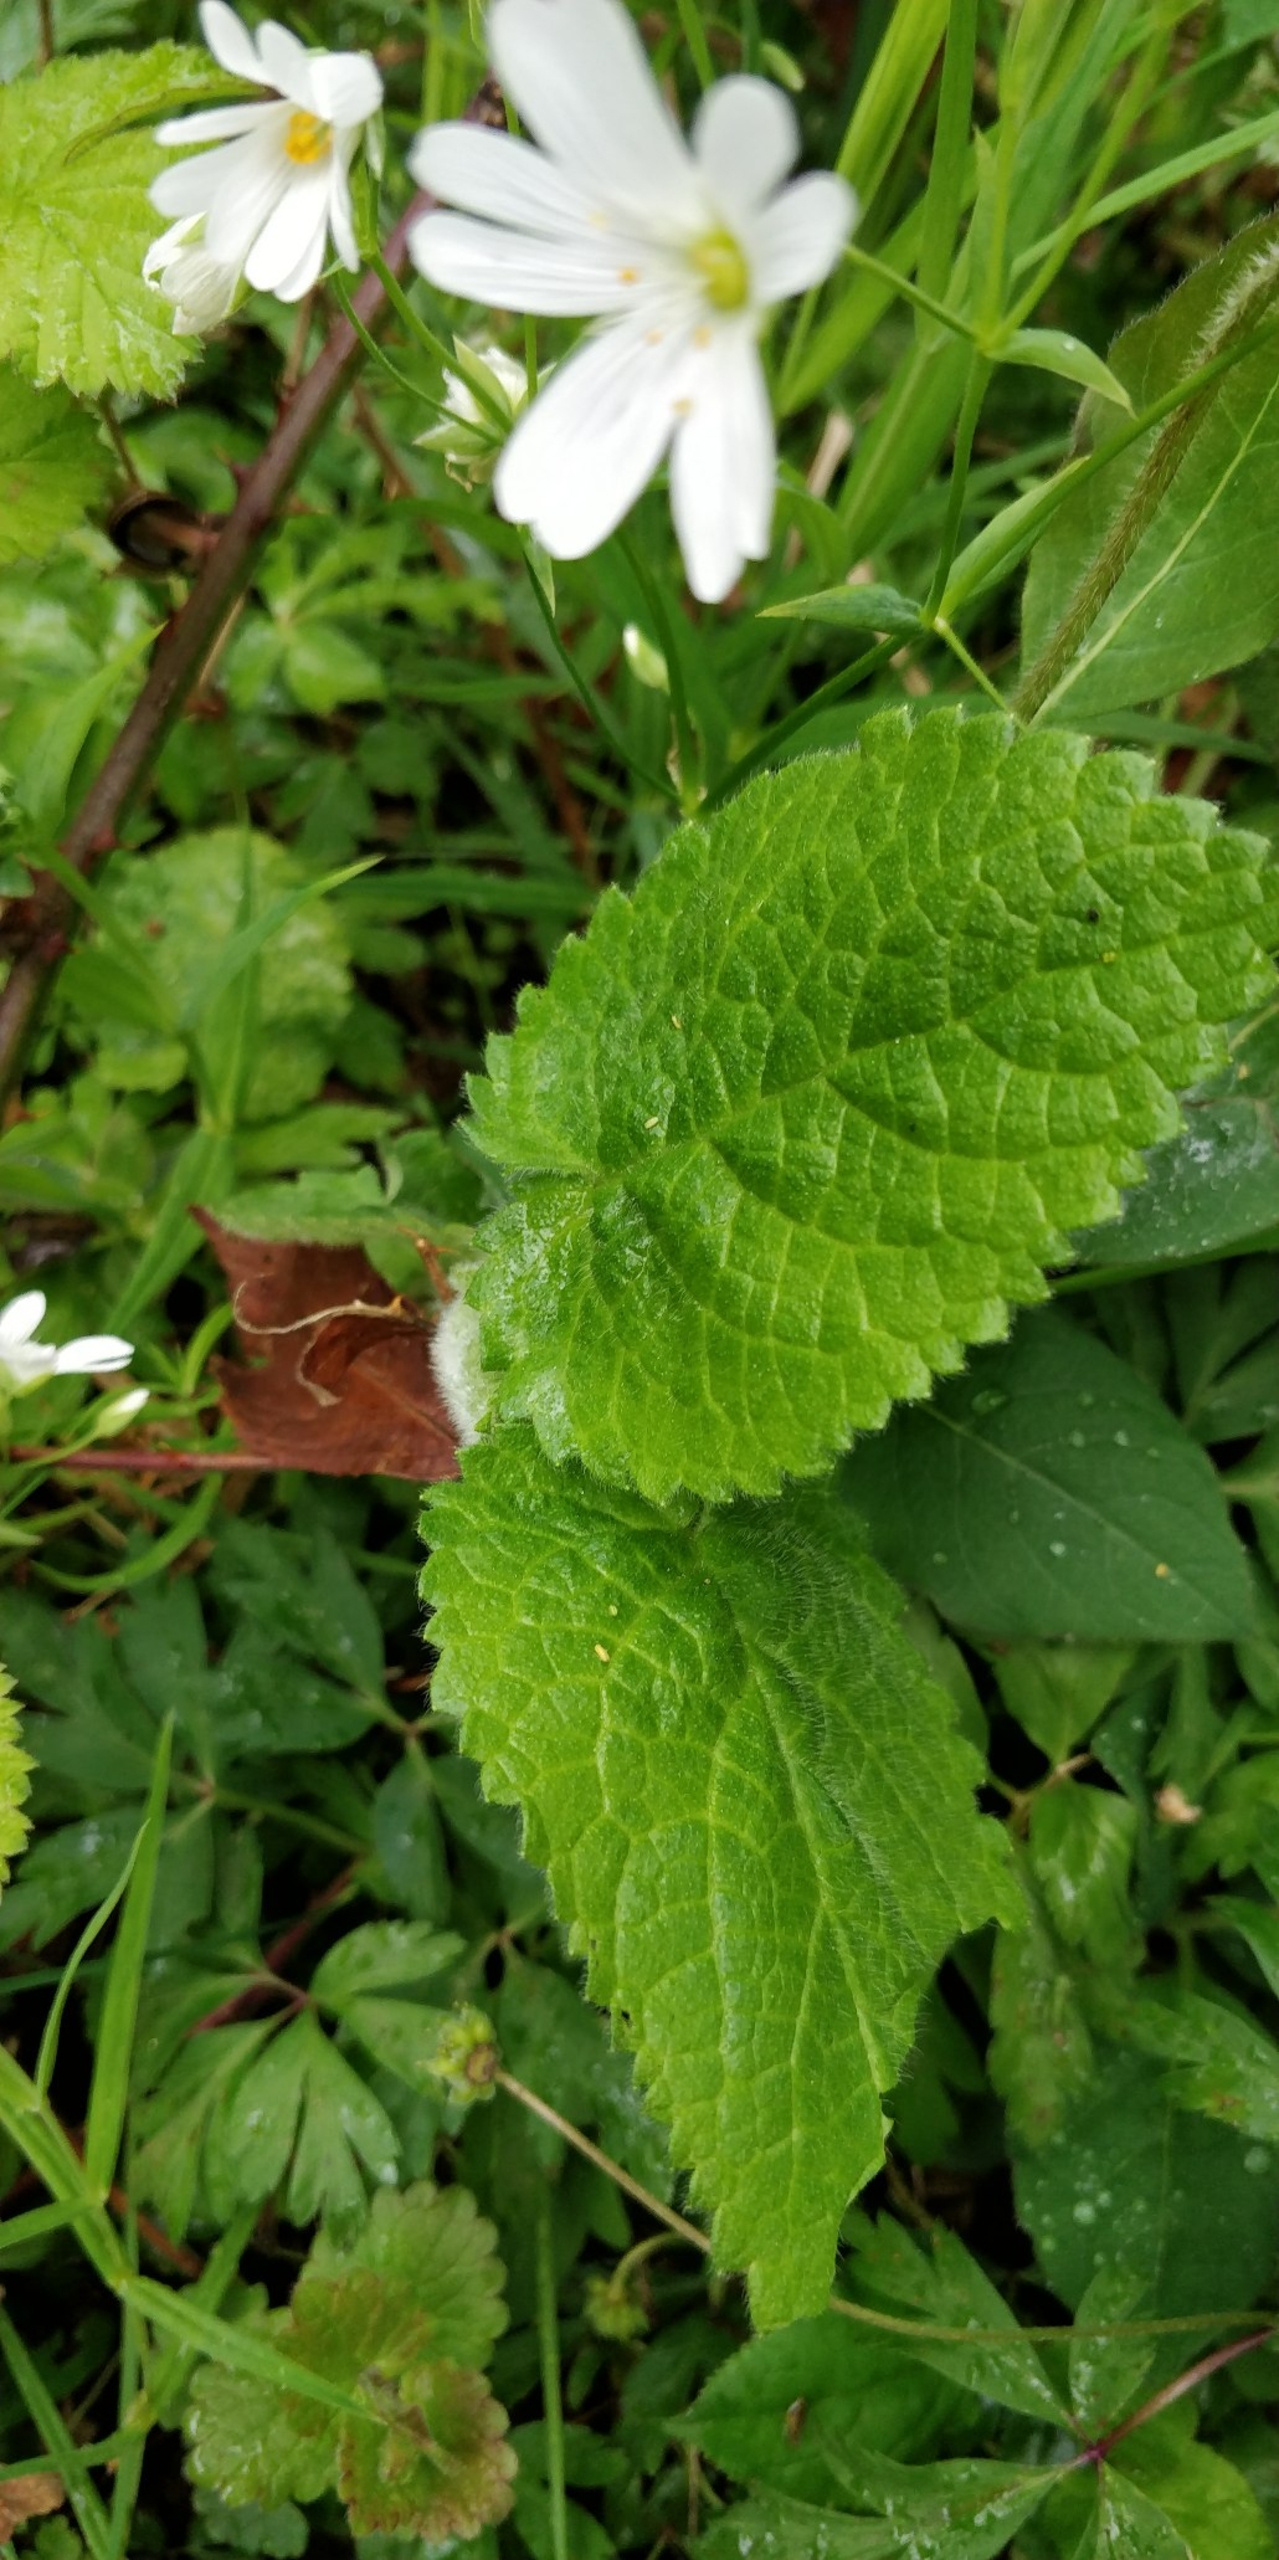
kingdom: Plantae
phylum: Tracheophyta
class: Magnoliopsida
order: Lamiales
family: Lamiaceae
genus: Stachys
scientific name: Stachys sylvatica
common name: Skov-galtetand
